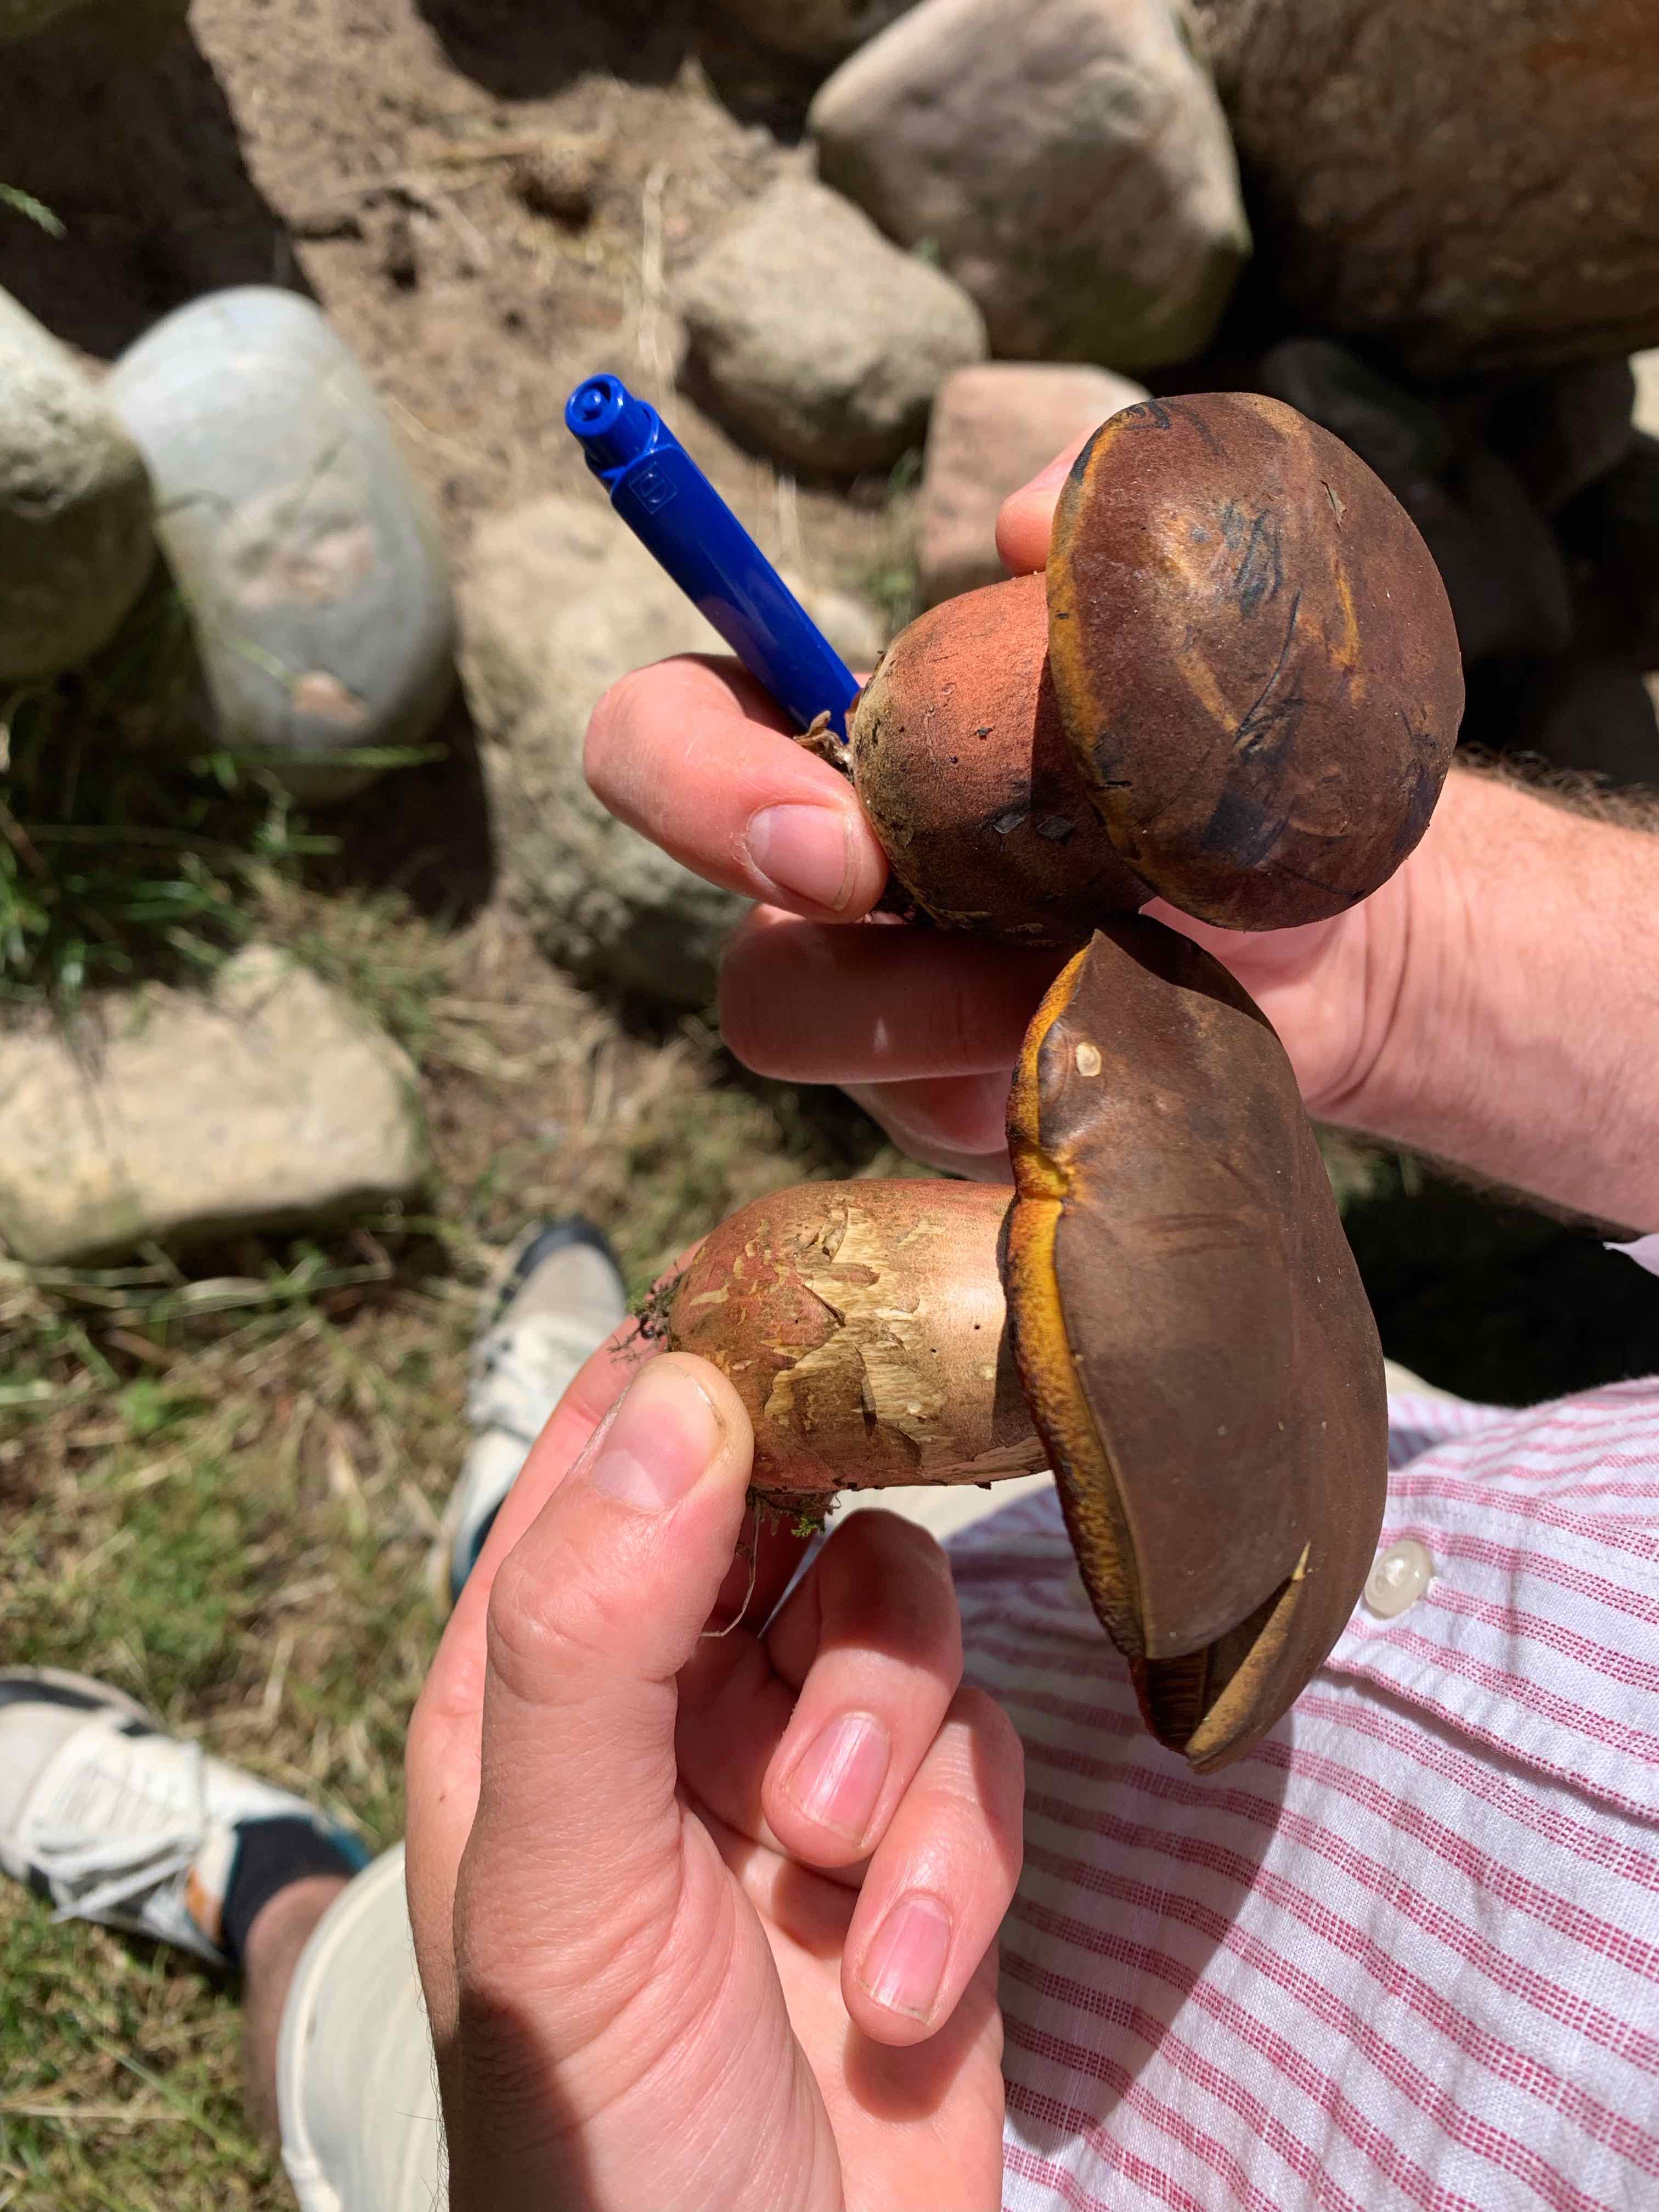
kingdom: Fungi
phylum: Basidiomycota
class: Agaricomycetes
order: Boletales
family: Boletaceae
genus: Neoboletus
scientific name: Neoboletus erythropus
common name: punktstokket indigorørhat
